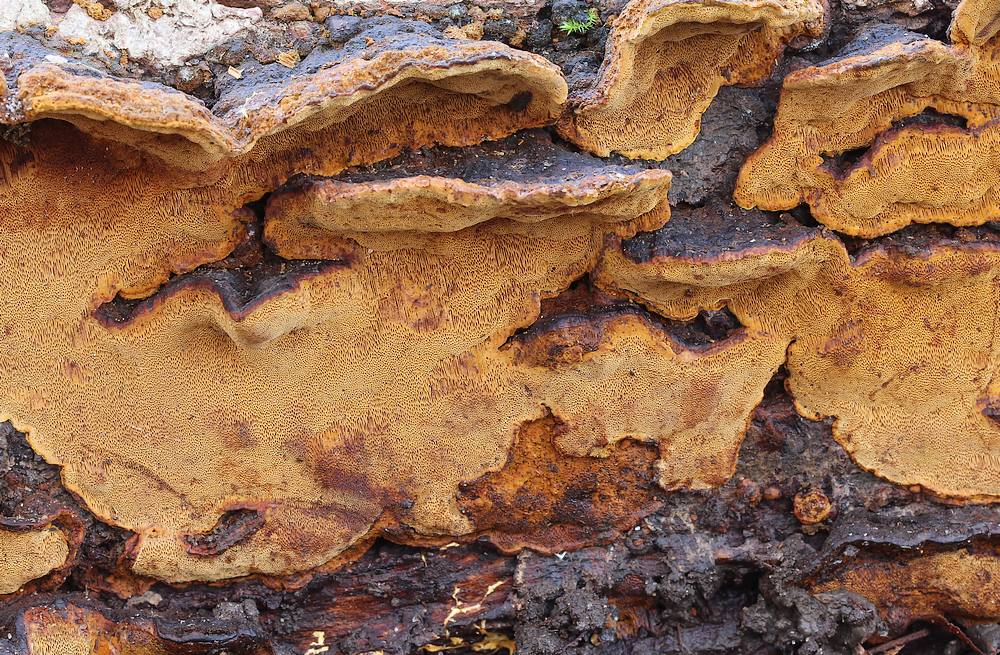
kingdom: Fungi
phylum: Basidiomycota
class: Agaricomycetes
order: Hymenochaetales
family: Hymenochaetaceae
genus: Phellinopsis
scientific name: Phellinopsis conchata
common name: pile-ildporesvamp
